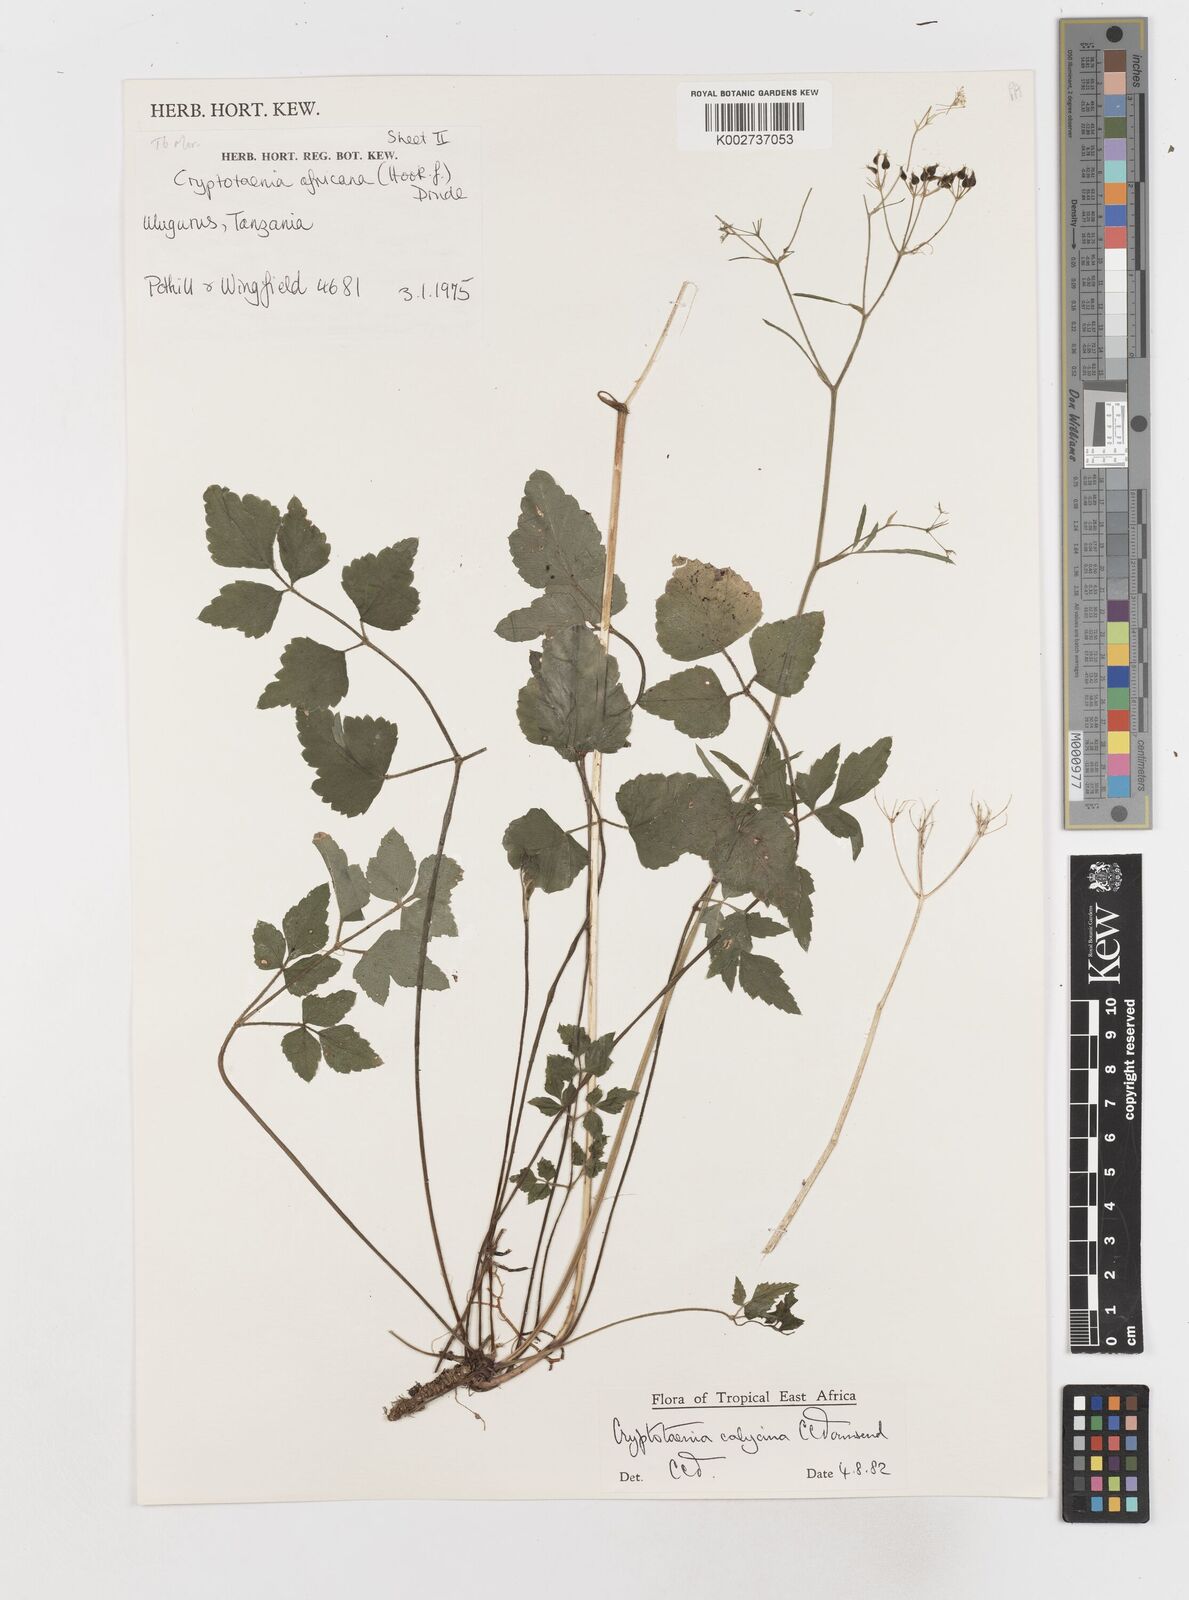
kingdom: Plantae
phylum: Tracheophyta
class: Magnoliopsida
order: Apiales
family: Apiaceae
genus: Cryptotaenia
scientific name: Cryptotaenia calycina
